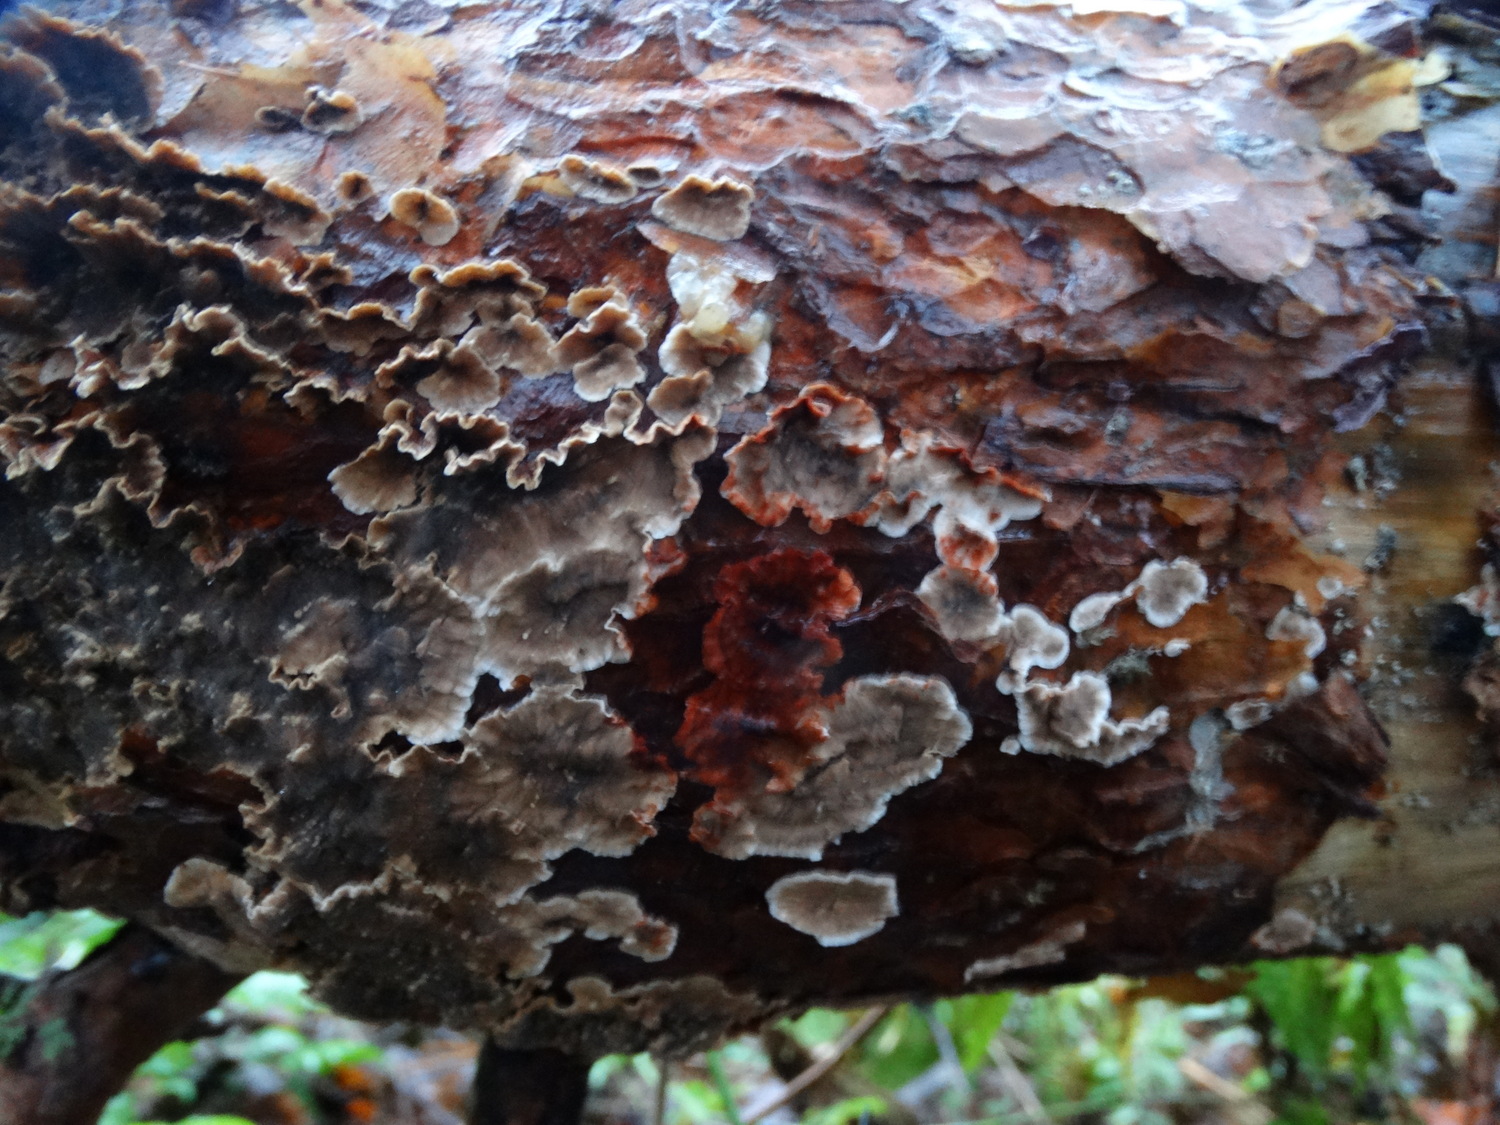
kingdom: Fungi
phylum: Basidiomycota
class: Agaricomycetes
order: Russulales
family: Stereaceae
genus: Stereum
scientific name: Stereum sanguinolentum
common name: blødende lædersvamp
